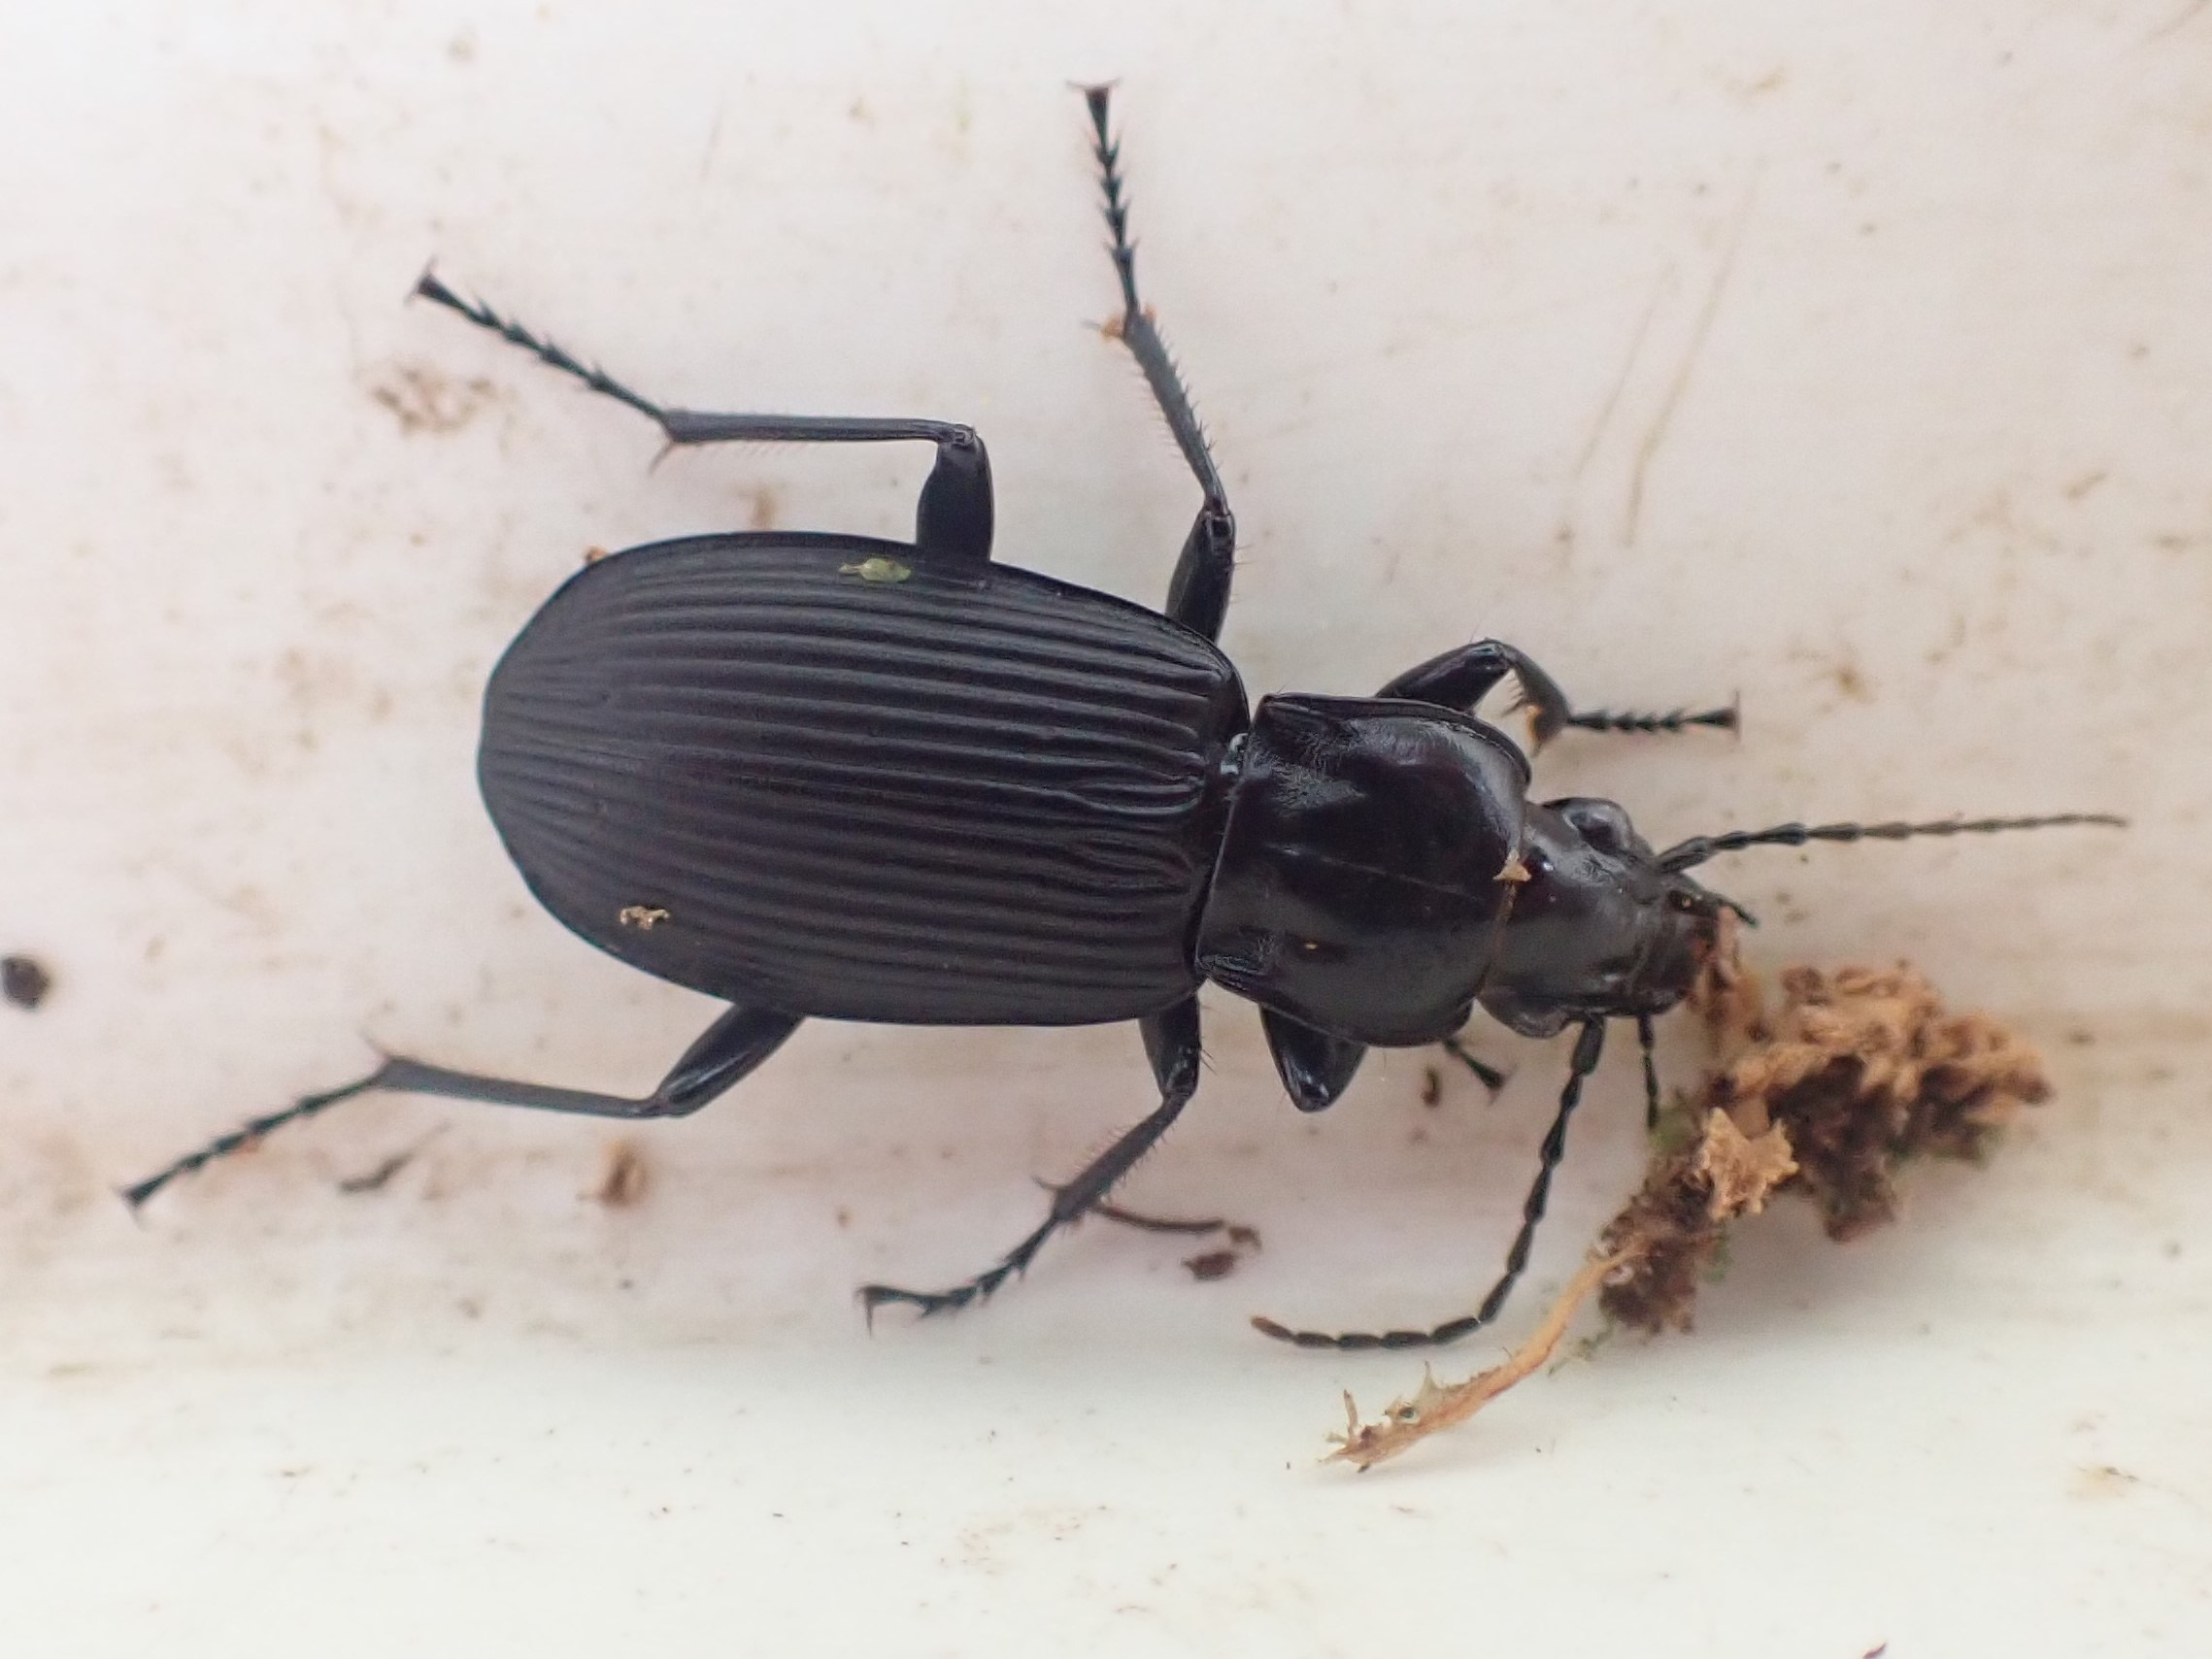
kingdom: Animalia
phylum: Arthropoda
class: Insecta
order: Coleoptera
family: Carabidae
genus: Pterostichus
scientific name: Pterostichus niger
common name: Skovjordløber
